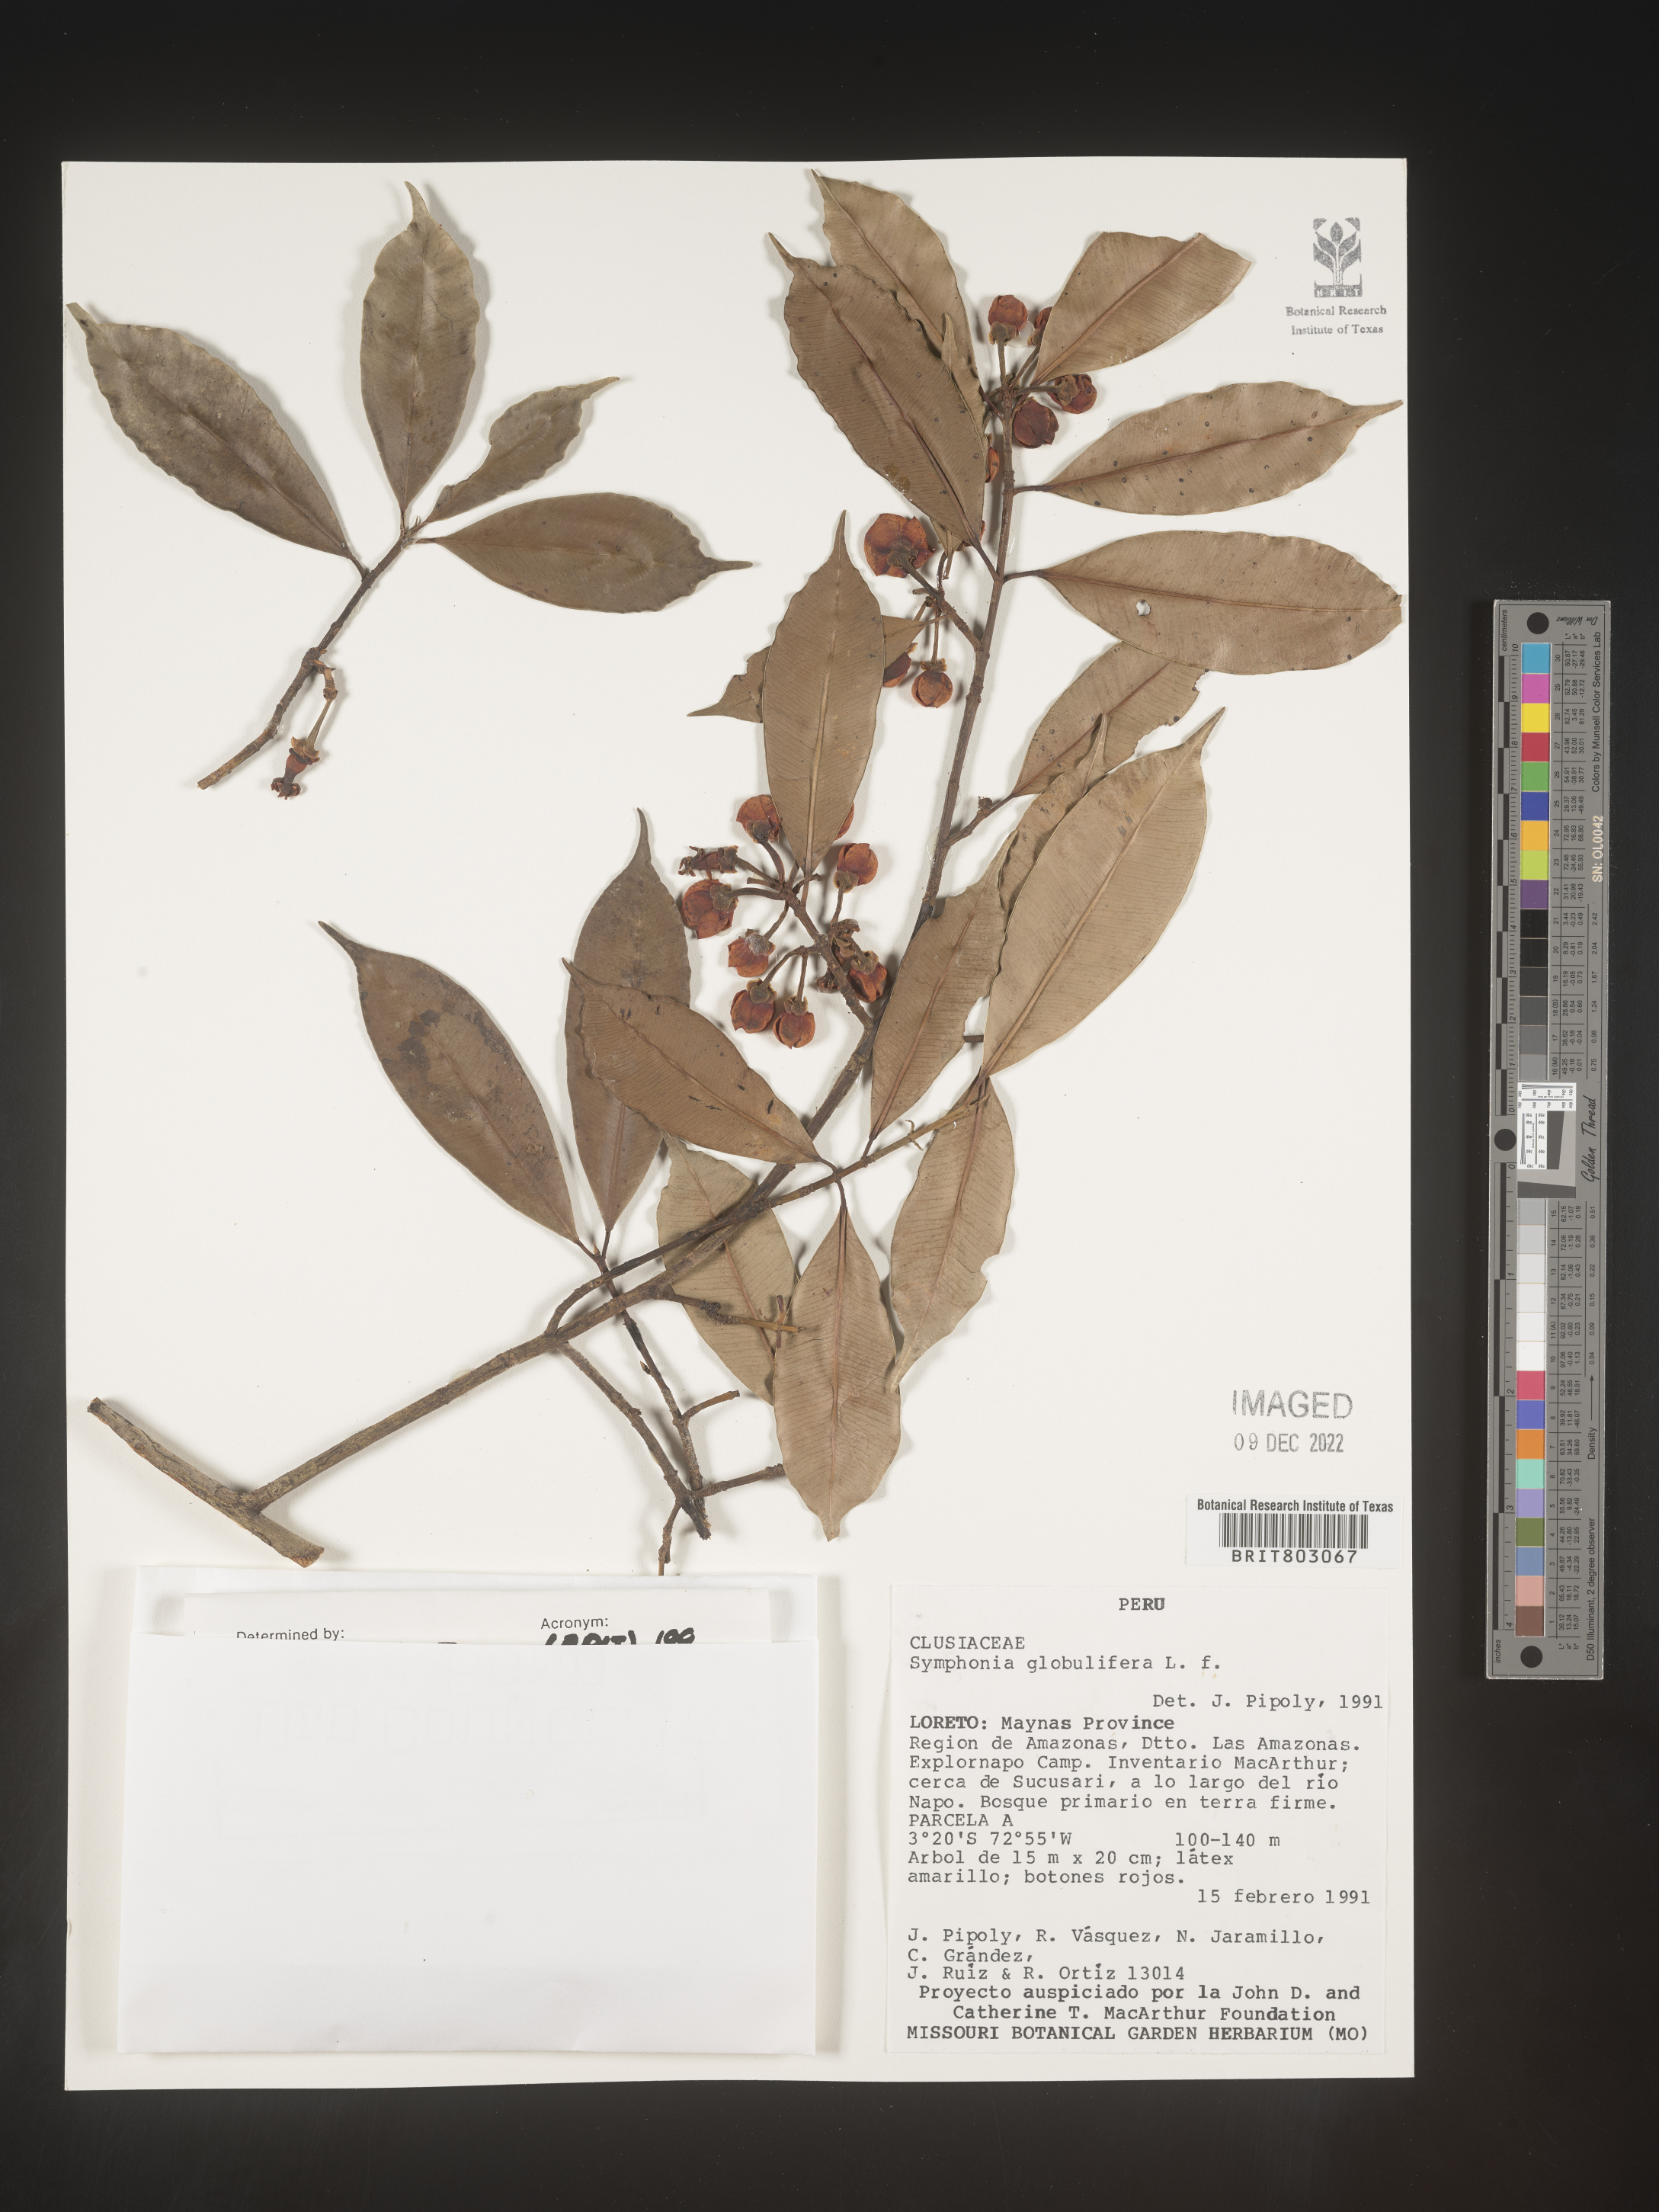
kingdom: Plantae
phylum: Tracheophyta
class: Magnoliopsida
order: Malpighiales
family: Clusiaceae
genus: Symphonia
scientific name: Symphonia
